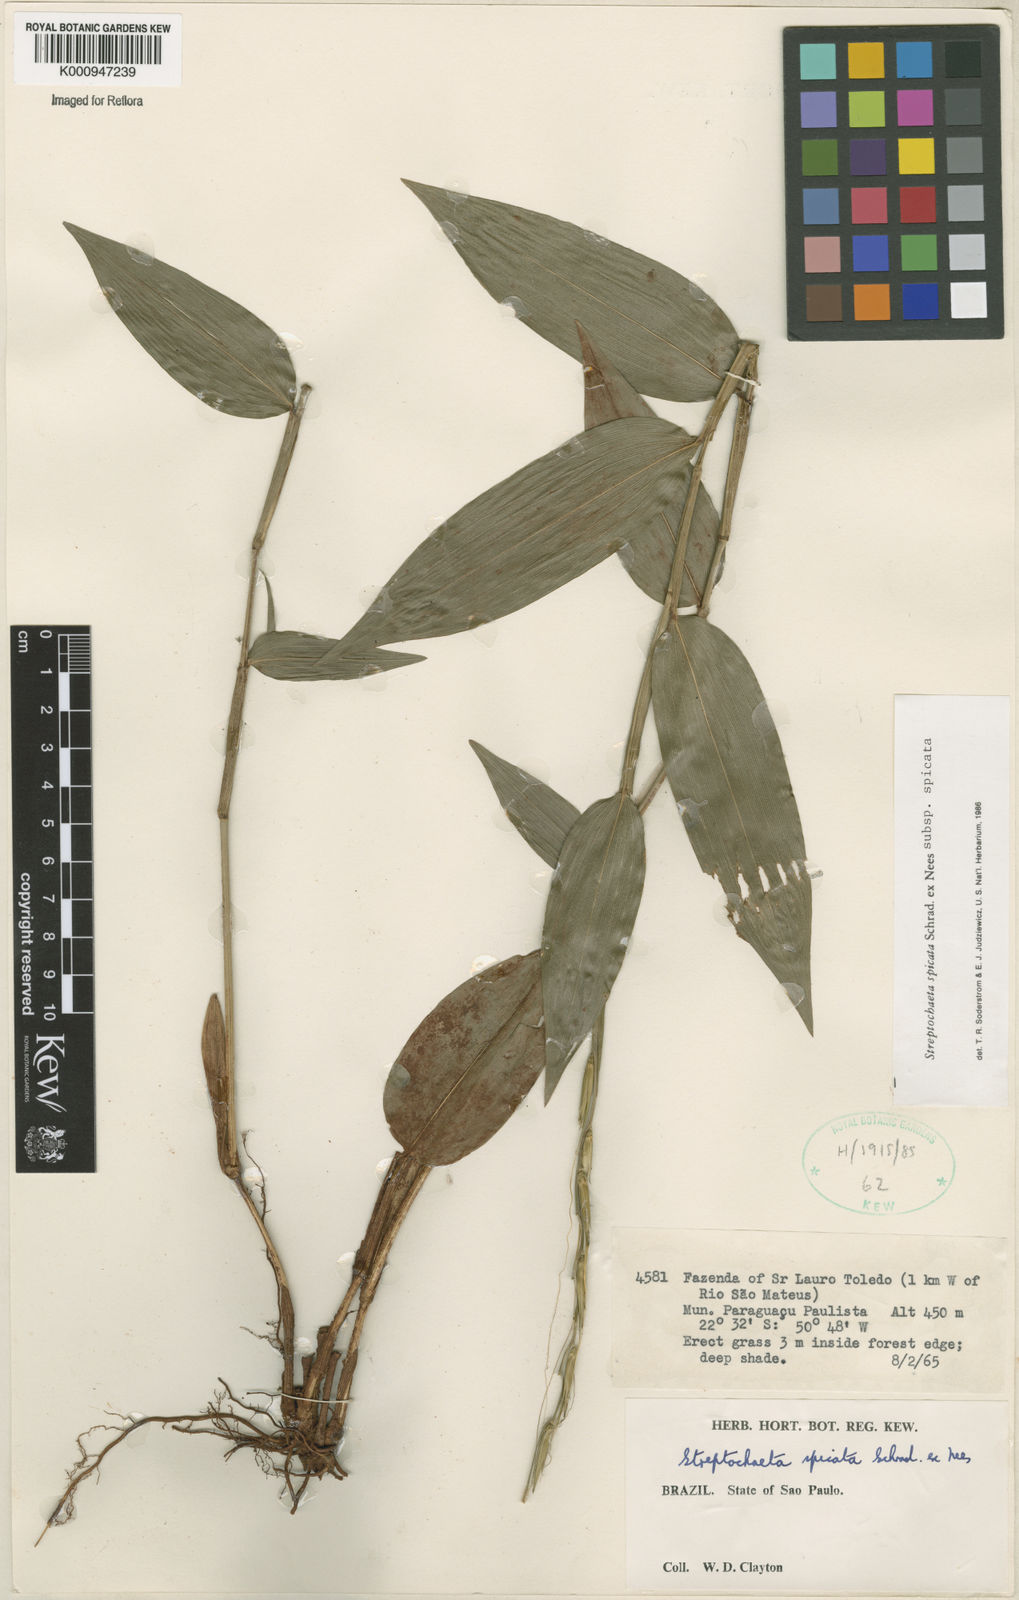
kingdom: Plantae
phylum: Tracheophyta
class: Liliopsida
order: Poales
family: Poaceae
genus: Streptochaeta
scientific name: Streptochaeta spicata
